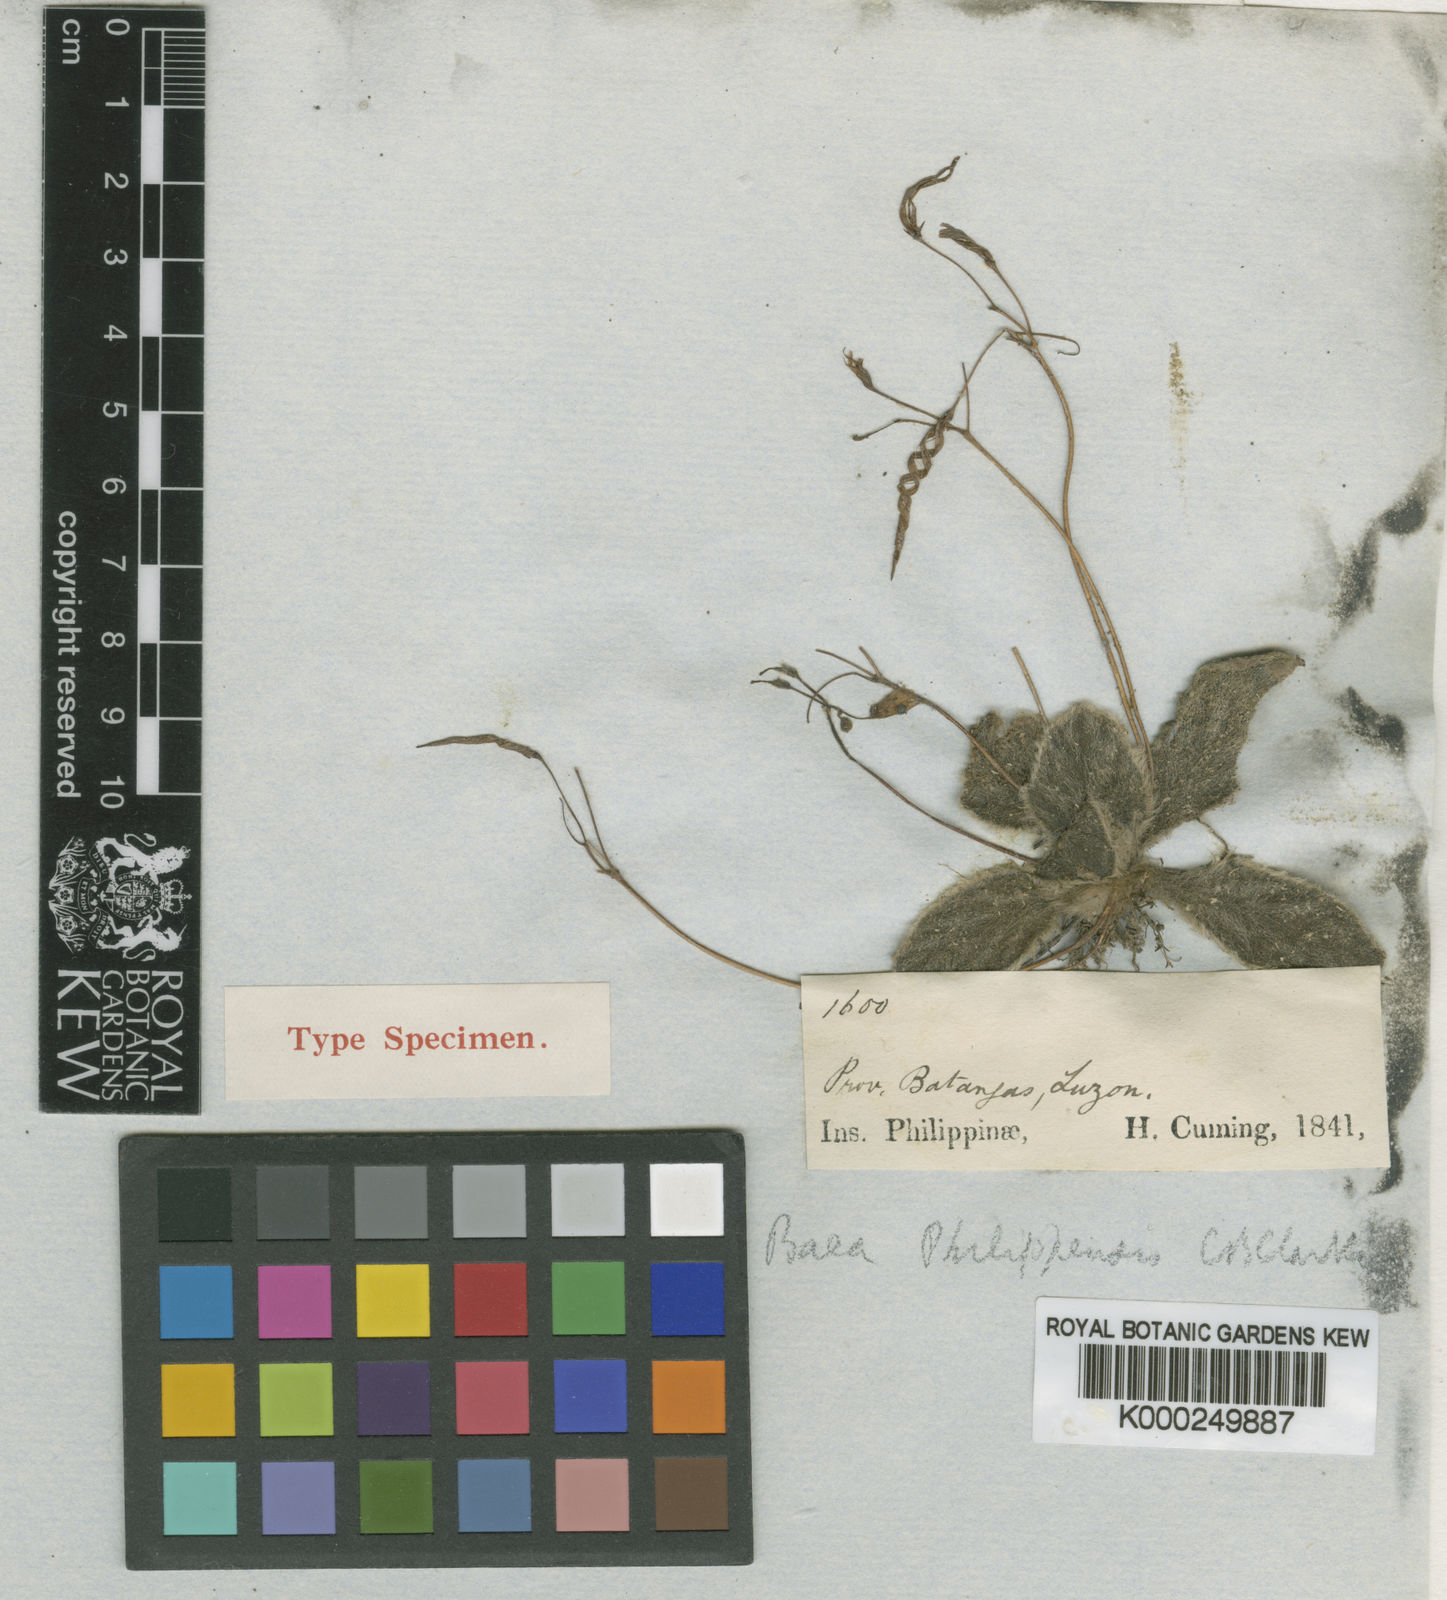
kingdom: Plantae
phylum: Tracheophyta
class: Magnoliopsida
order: Lamiales
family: Gesneriaceae
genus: Dorcoceras
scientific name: Dorcoceras philippense
